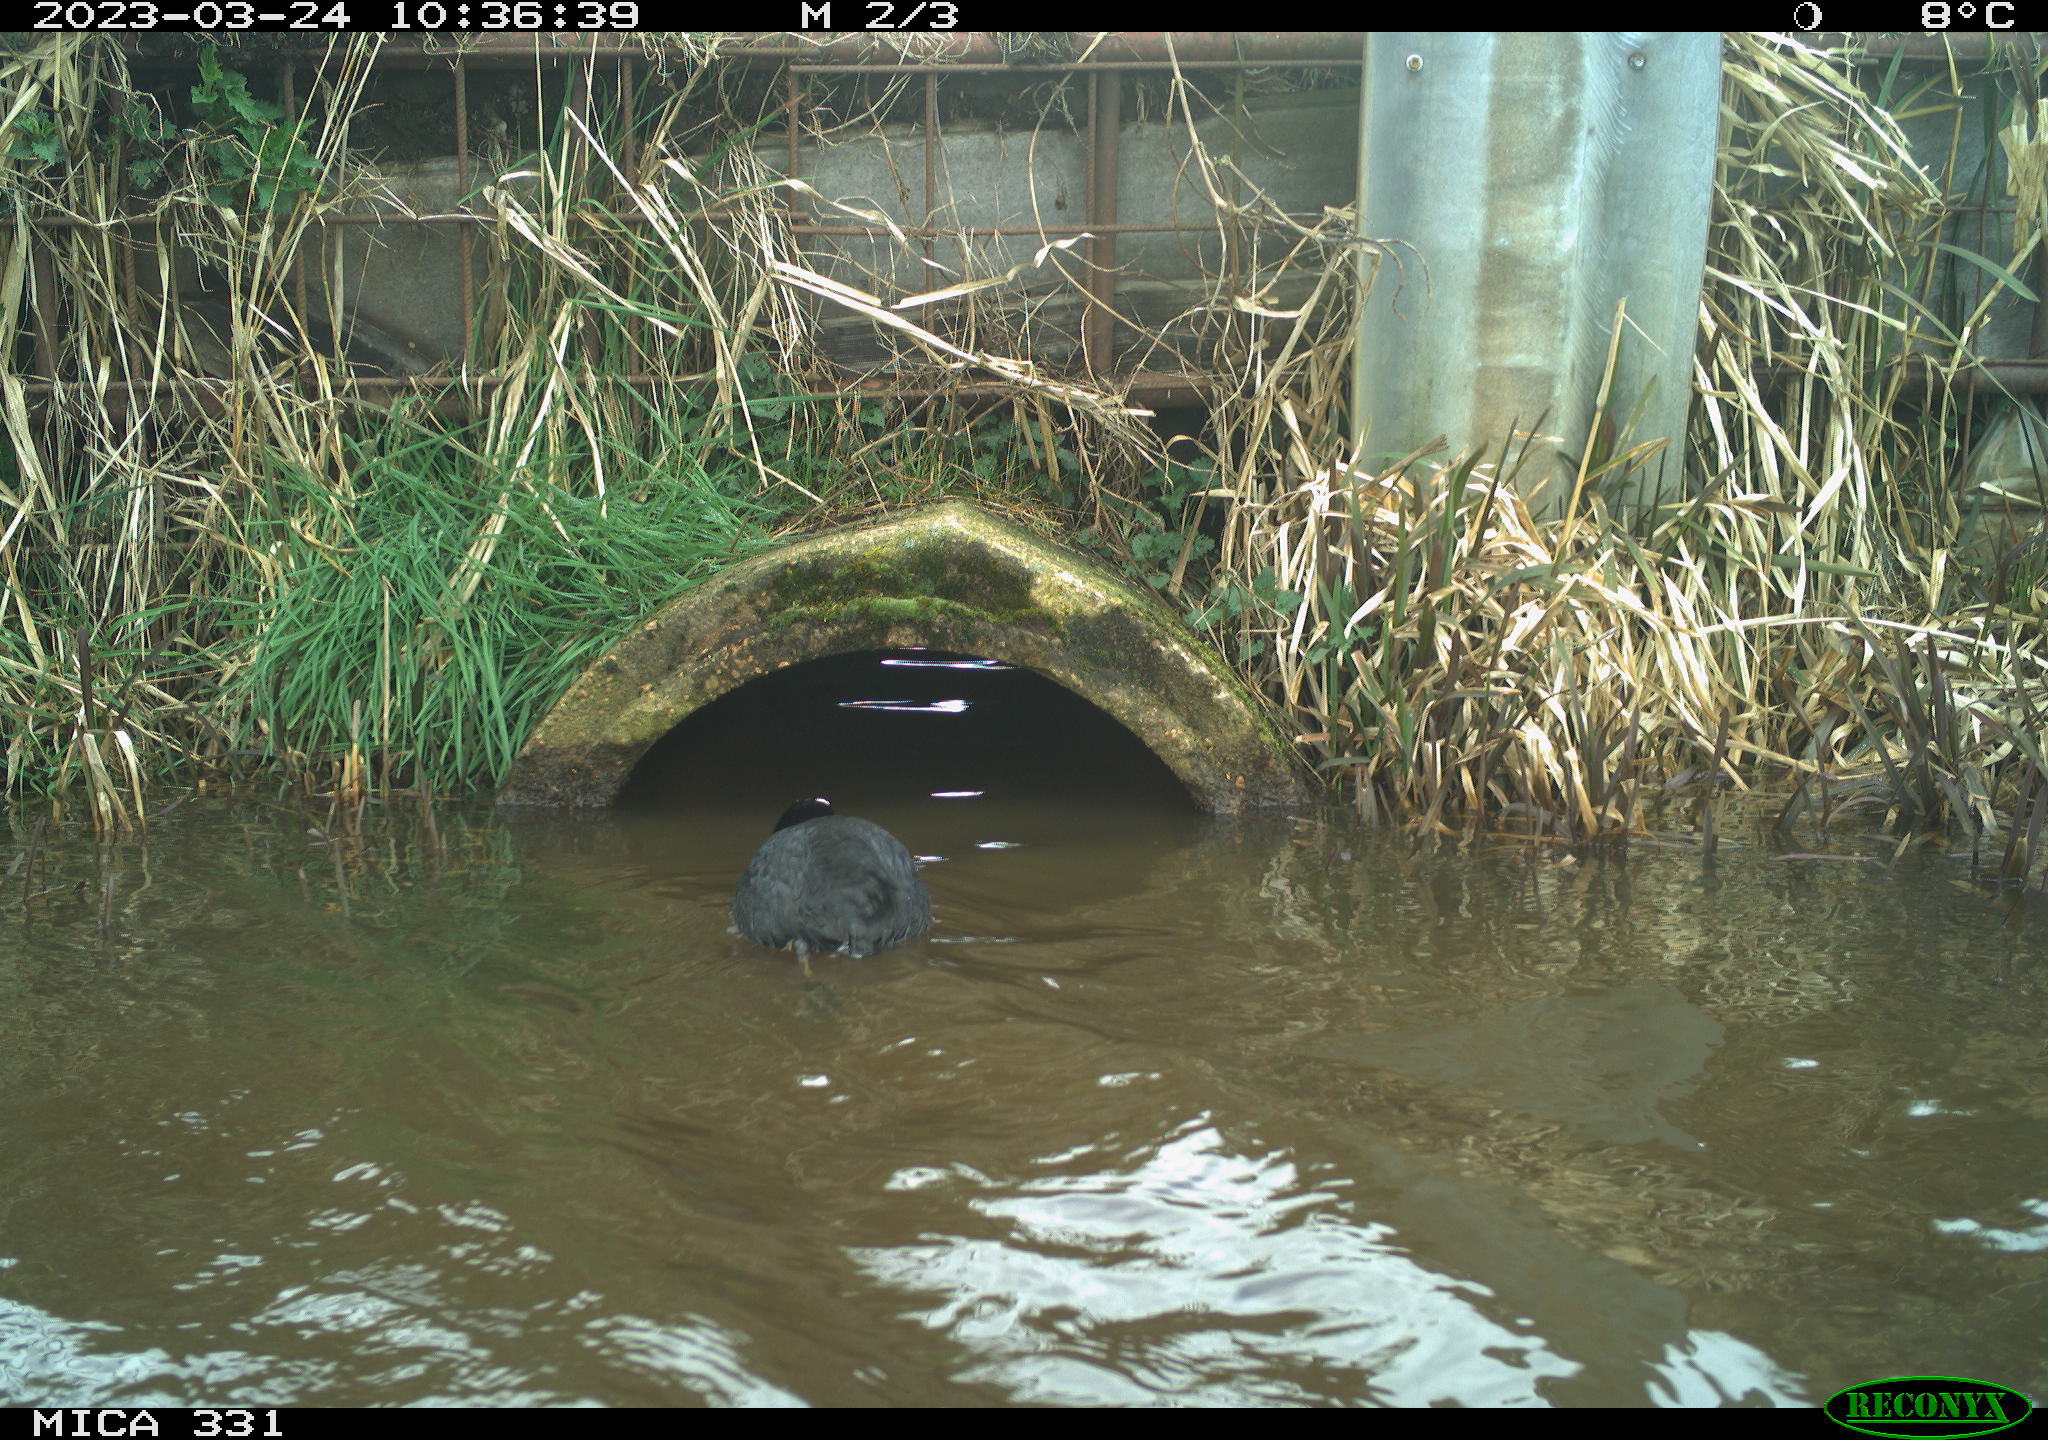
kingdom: Animalia
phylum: Chordata
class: Aves
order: Gruiformes
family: Rallidae
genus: Gallinula
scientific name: Gallinula chloropus
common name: Common moorhen
